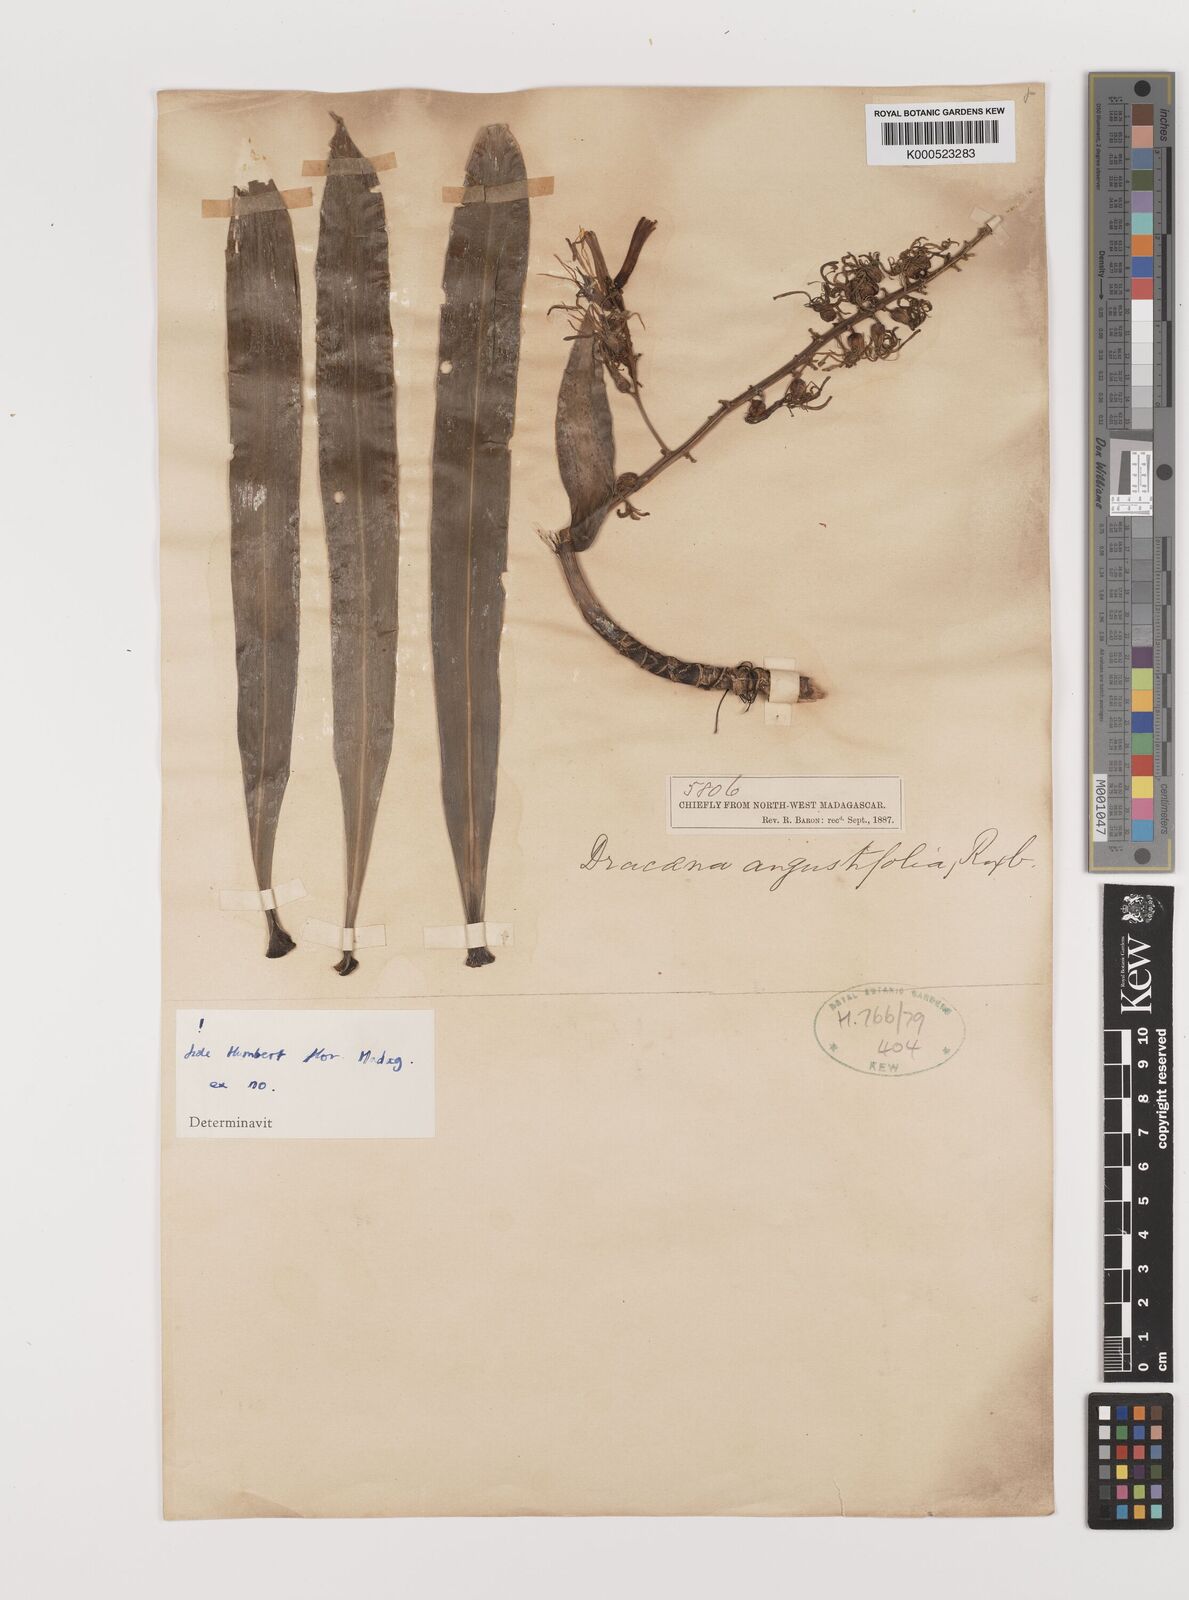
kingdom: Plantae
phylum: Tracheophyta
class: Liliopsida
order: Asparagales
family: Asparagaceae
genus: Dracaena
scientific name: Dracaena angustifolia
